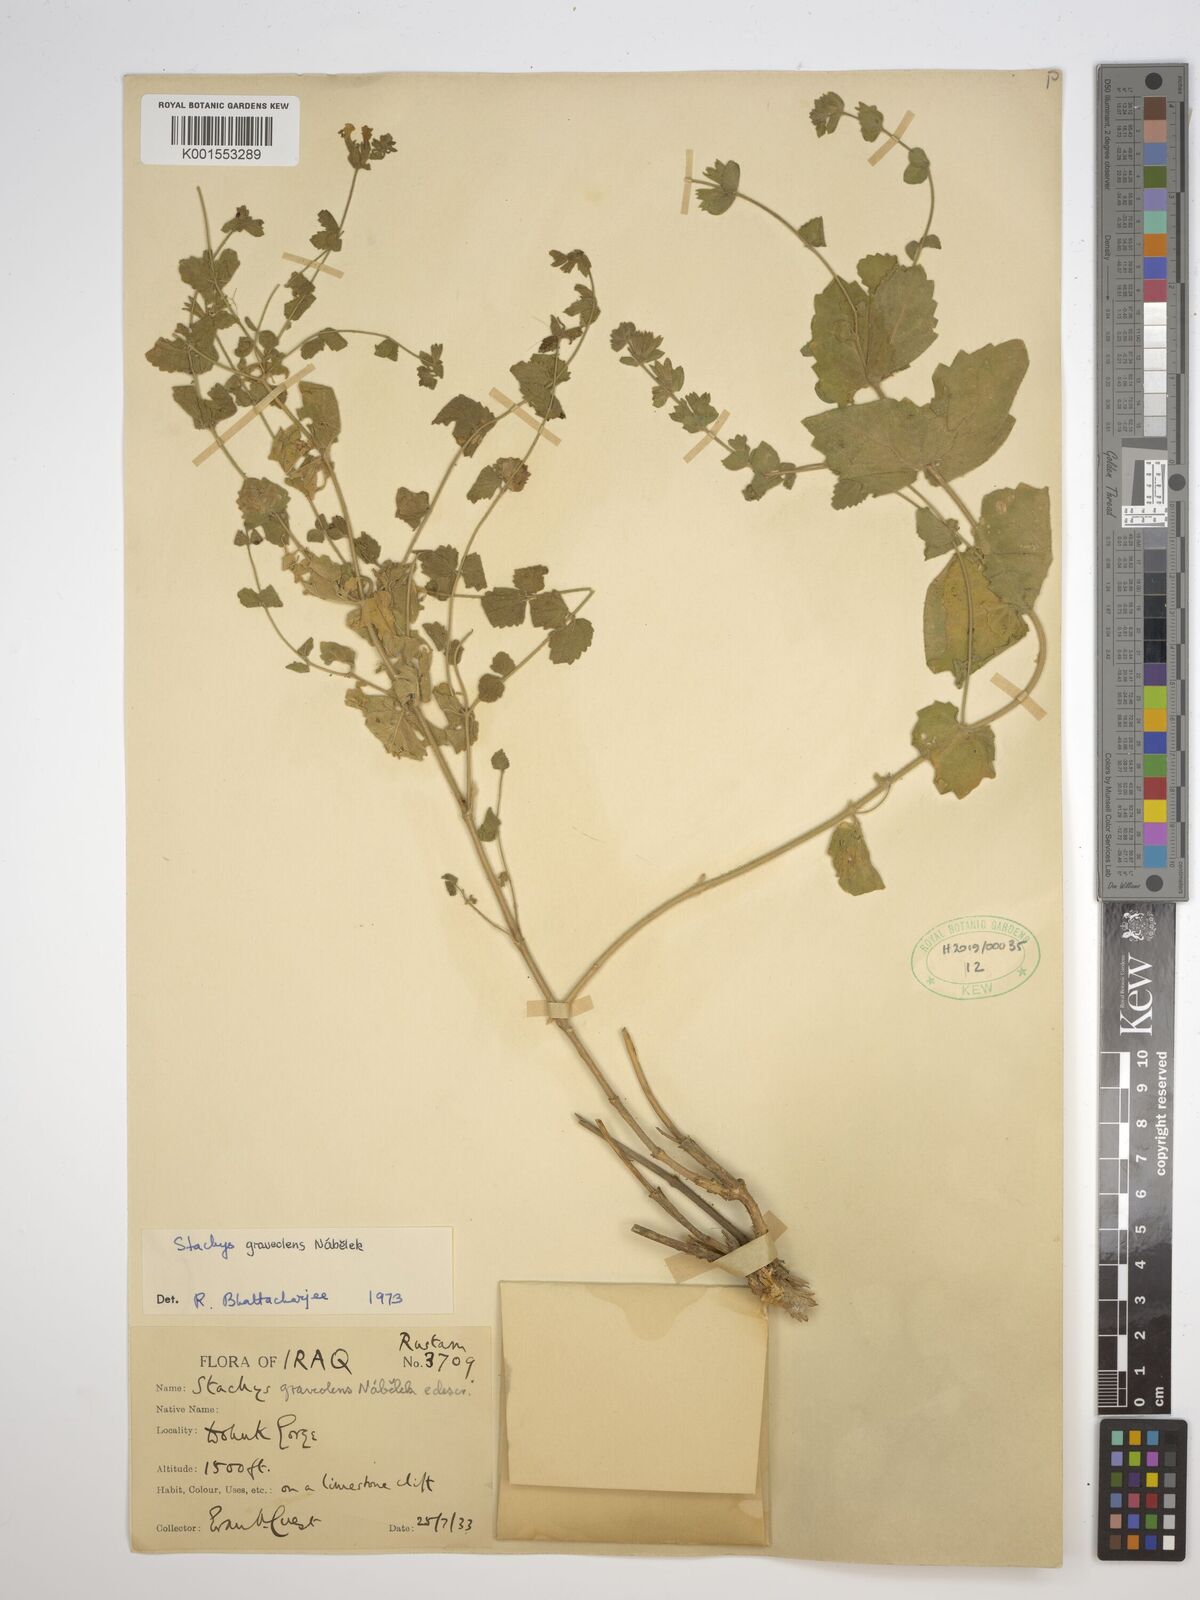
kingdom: Plantae
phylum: Tracheophyta
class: Magnoliopsida
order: Lamiales
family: Lamiaceae
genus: Stachys
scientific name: Stachys graveolens
